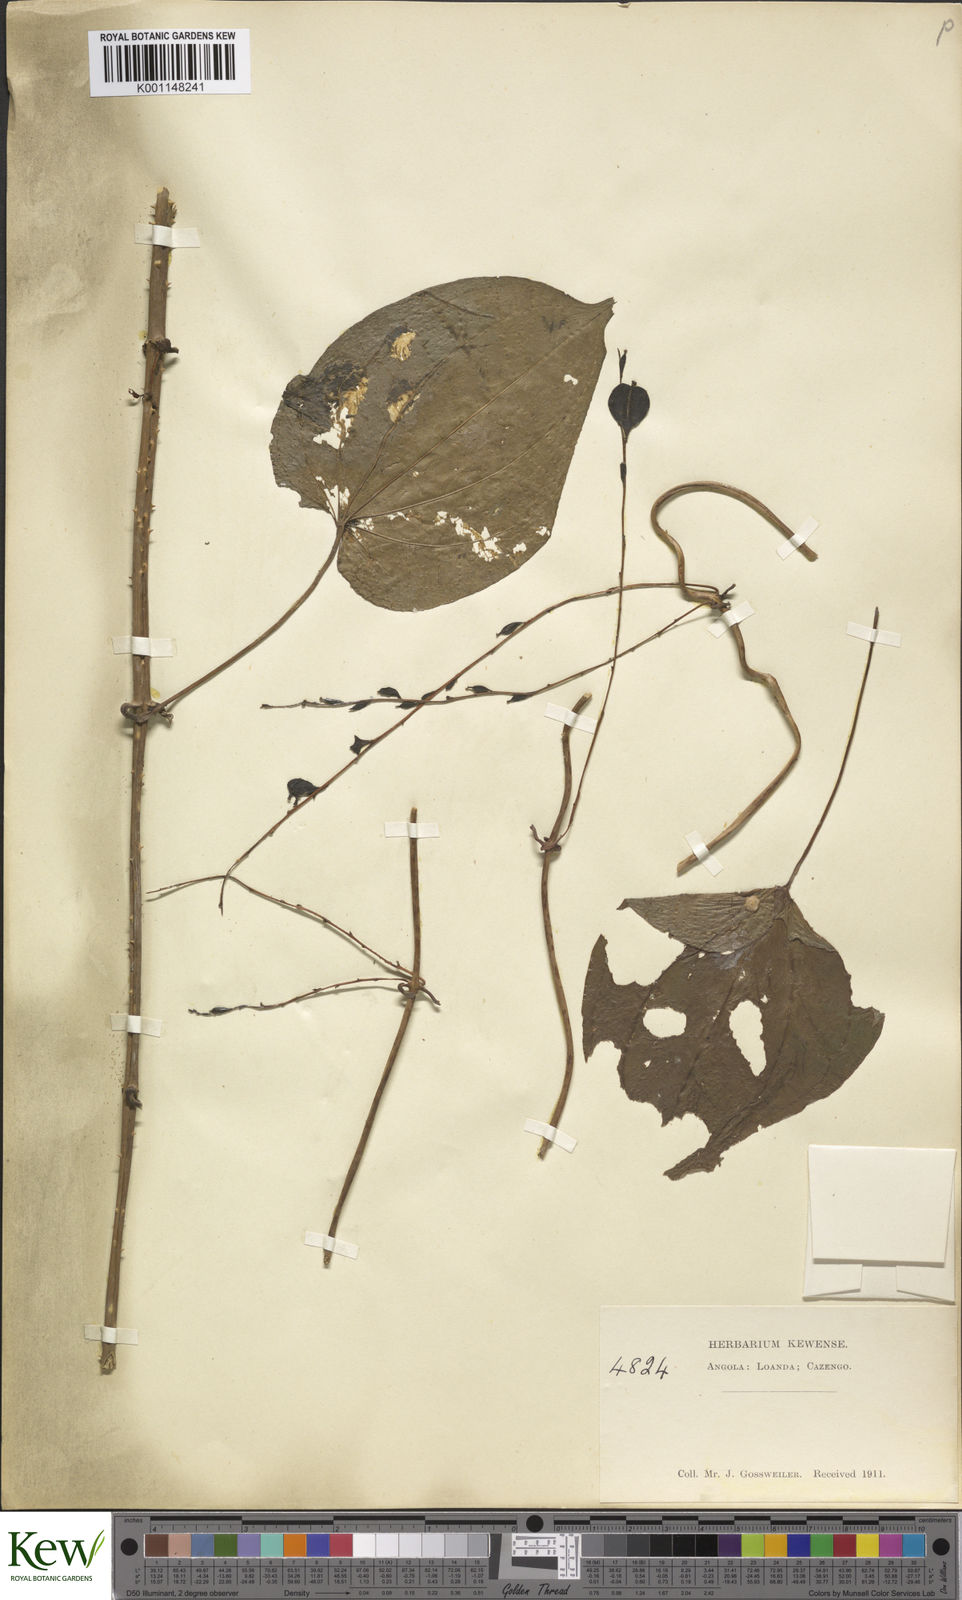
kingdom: Plantae
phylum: Tracheophyta
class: Liliopsida
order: Dioscoreales
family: Dioscoreaceae
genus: Dioscorea
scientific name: Dioscorea cayenensis
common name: Attoto yam
